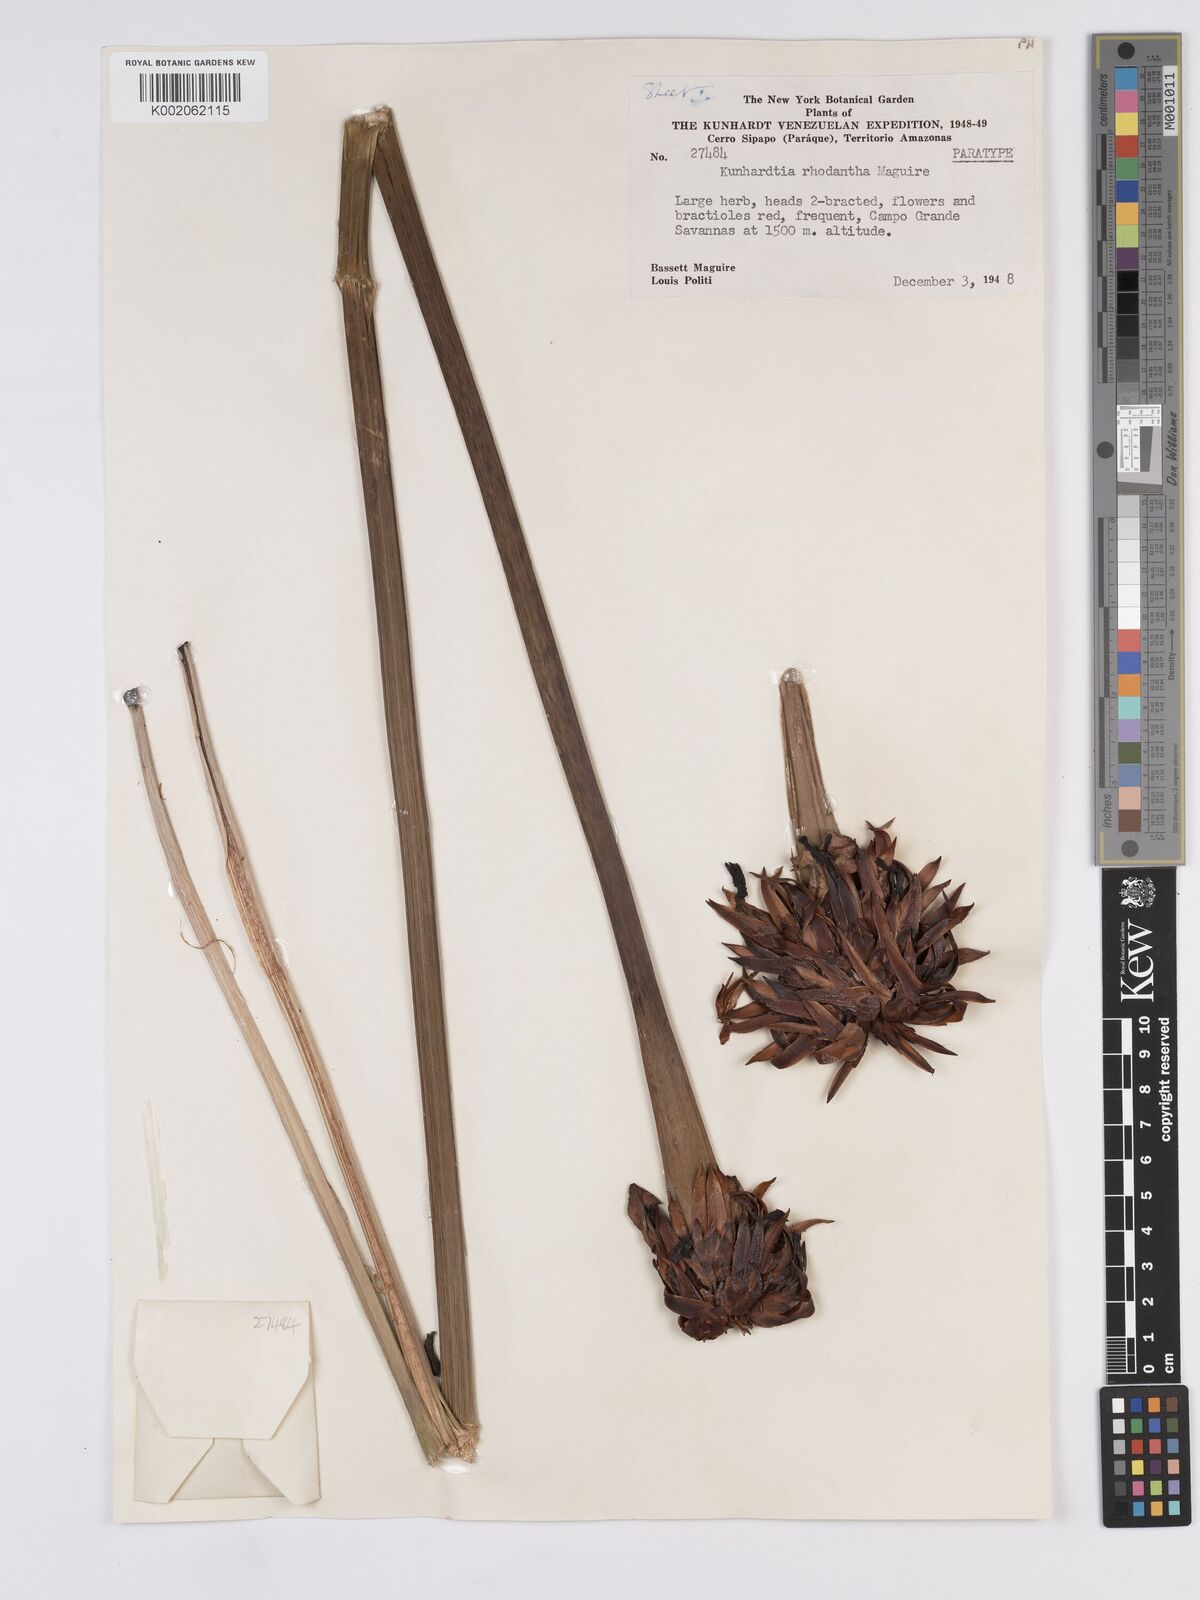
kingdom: Plantae
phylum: Tracheophyta
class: Liliopsida
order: Poales
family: Rapateaceae
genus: Kunhardtia
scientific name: Kunhardtia rhodantha
